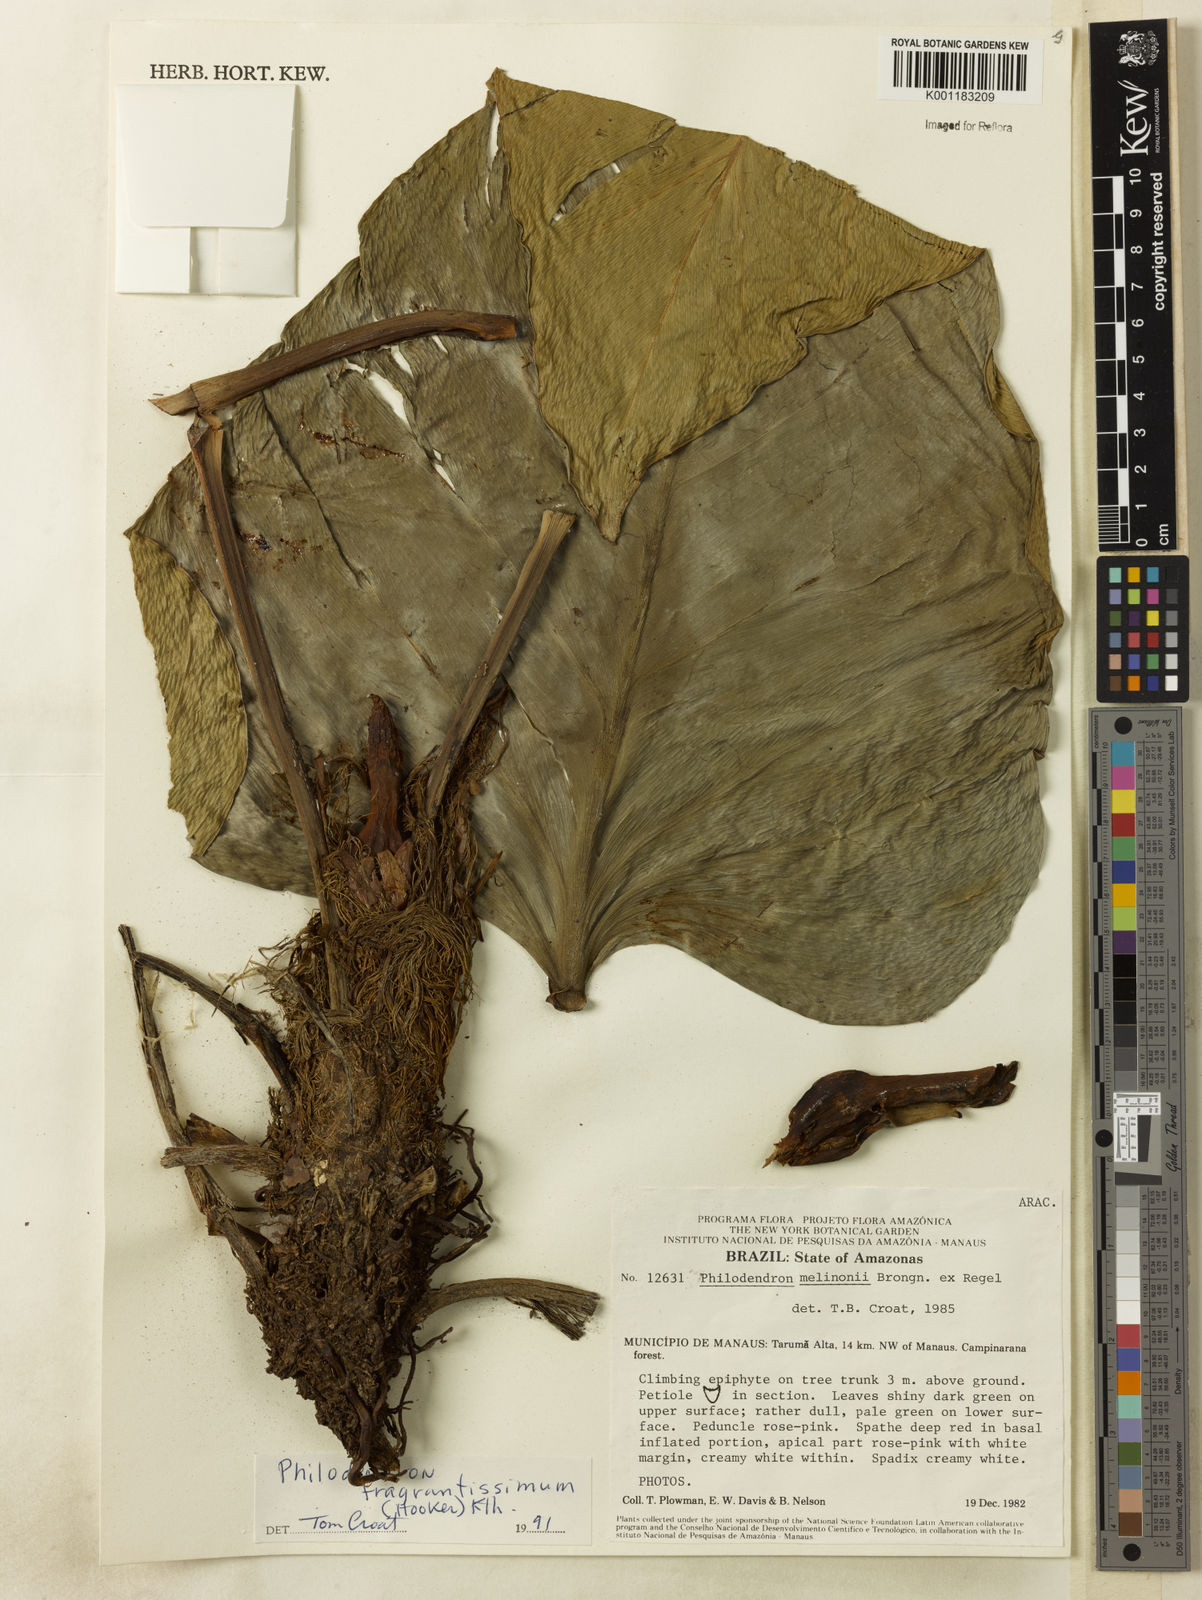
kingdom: Plantae
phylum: Tracheophyta
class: Liliopsida
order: Alismatales
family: Araceae
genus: Philodendron
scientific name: Philodendron
